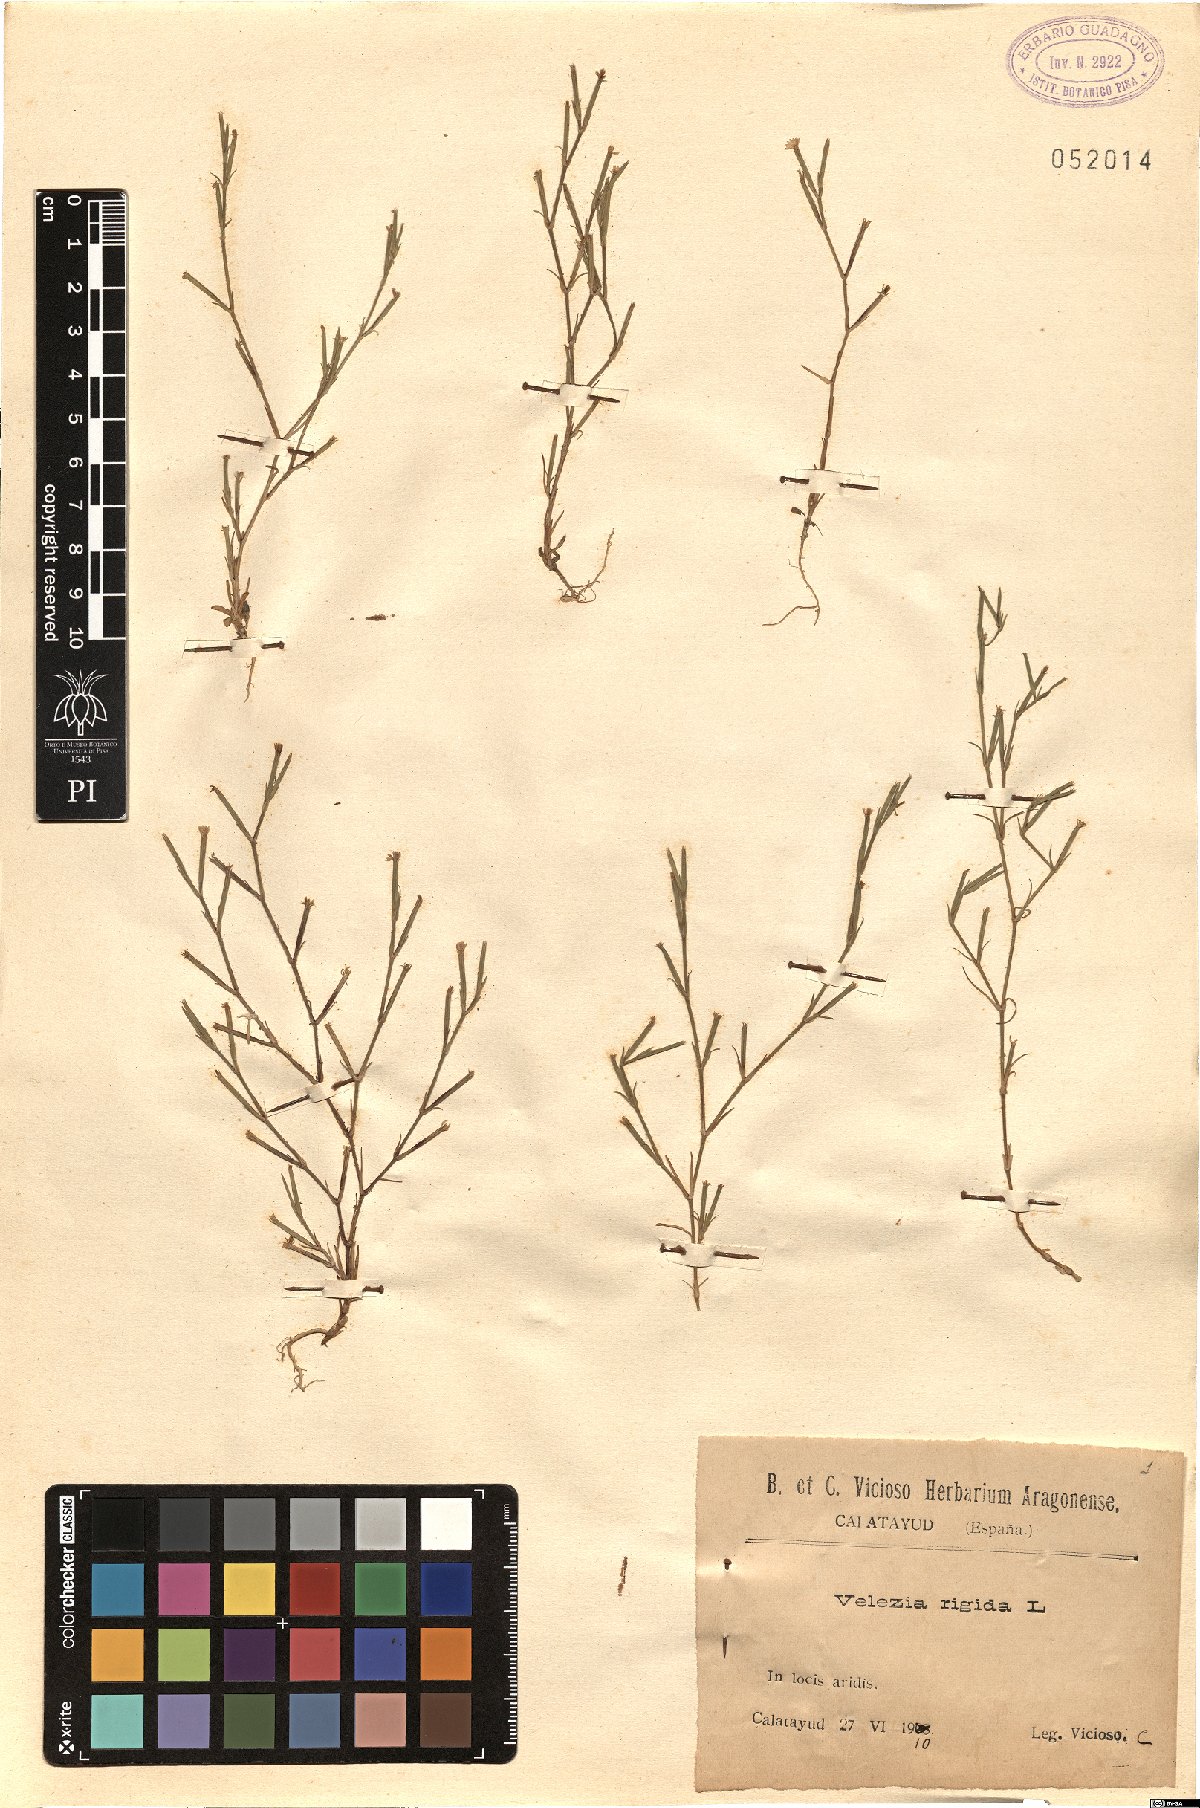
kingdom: Plantae
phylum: Tracheophyta
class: Magnoliopsida
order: Caryophyllales
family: Caryophyllaceae
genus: Dianthus
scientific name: Dianthus nudiflorus
